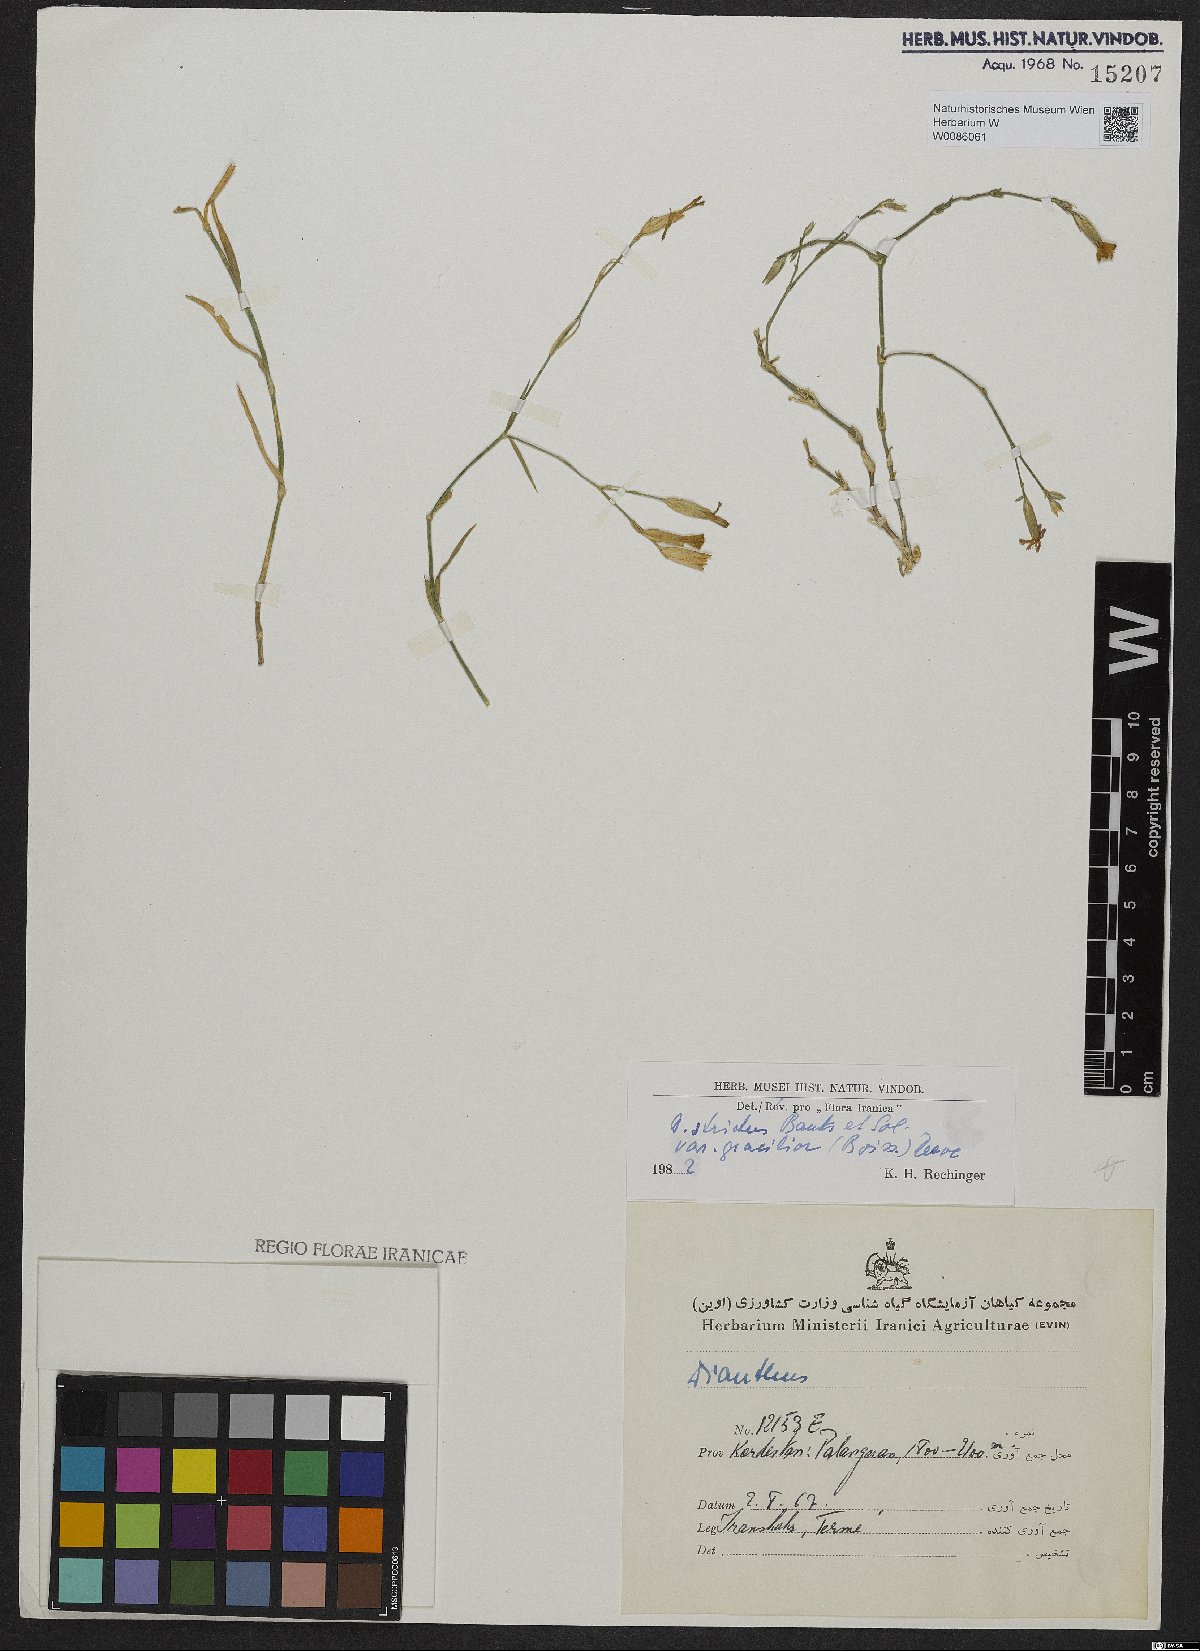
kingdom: Plantae
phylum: Tracheophyta
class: Magnoliopsida
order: Caryophyllales
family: Caryophyllaceae
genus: Dianthus
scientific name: Dianthus strictus
